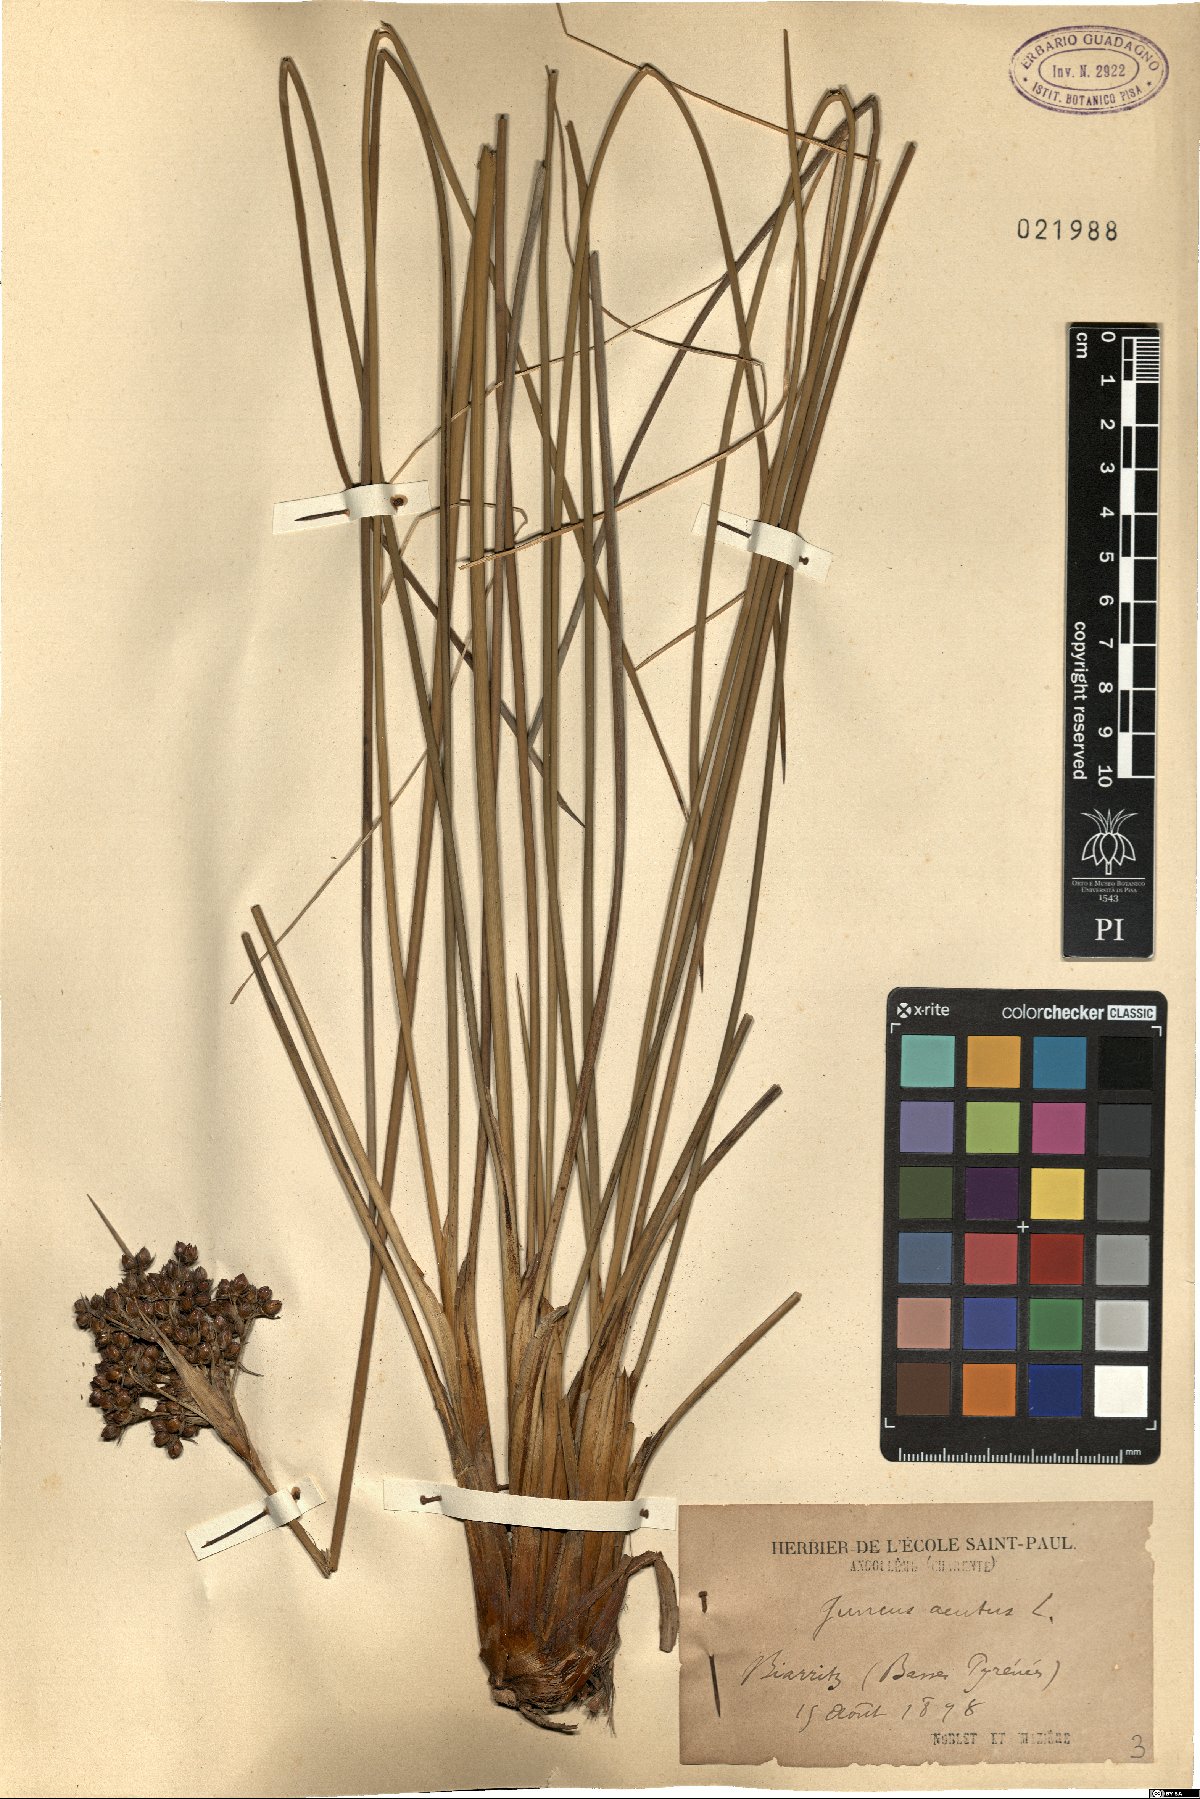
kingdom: Plantae
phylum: Tracheophyta
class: Liliopsida
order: Poales
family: Juncaceae
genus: Juncus
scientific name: Juncus acutus
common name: Sharp rush
